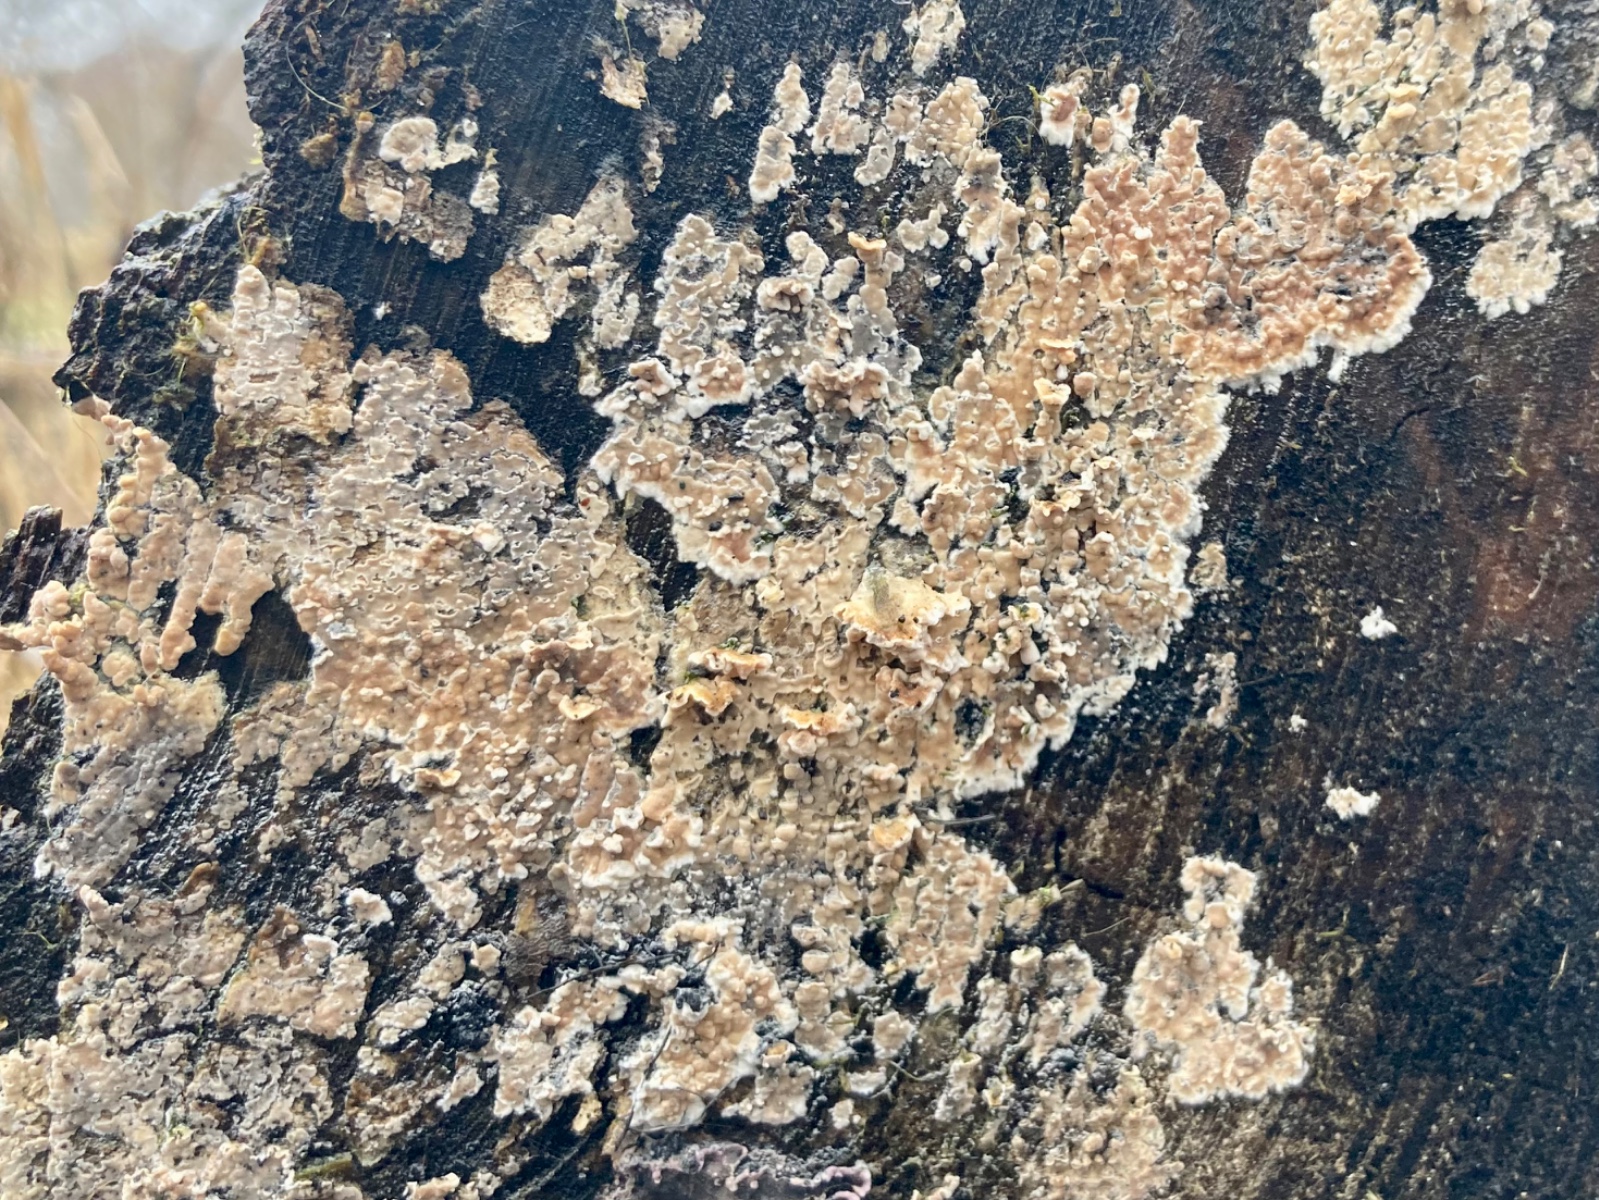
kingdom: Fungi
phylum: Basidiomycota
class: Agaricomycetes
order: Agaricales
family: Physalacriaceae
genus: Cylindrobasidium
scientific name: Cylindrobasidium evolvens
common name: sprækkehinde
